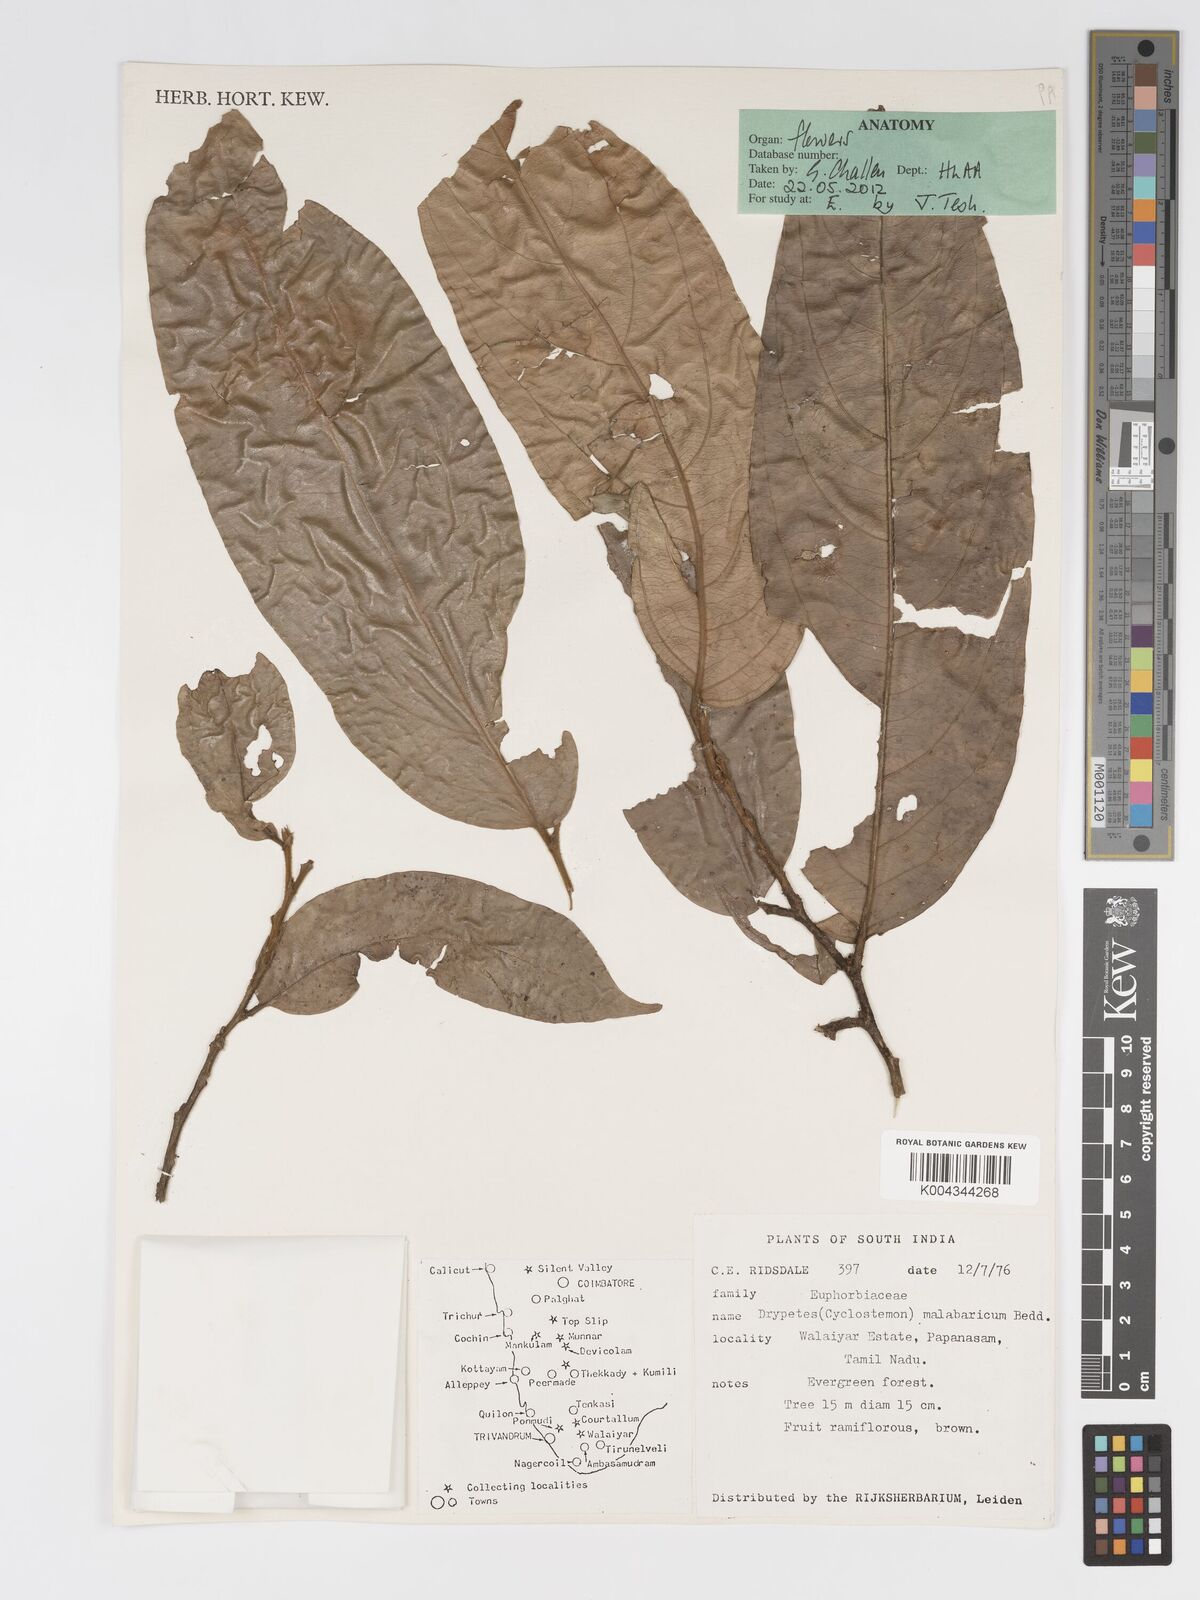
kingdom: Plantae
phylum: Tracheophyta
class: Magnoliopsida
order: Malpighiales
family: Putranjivaceae
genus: Drypetes
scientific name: Drypetes malabarica
